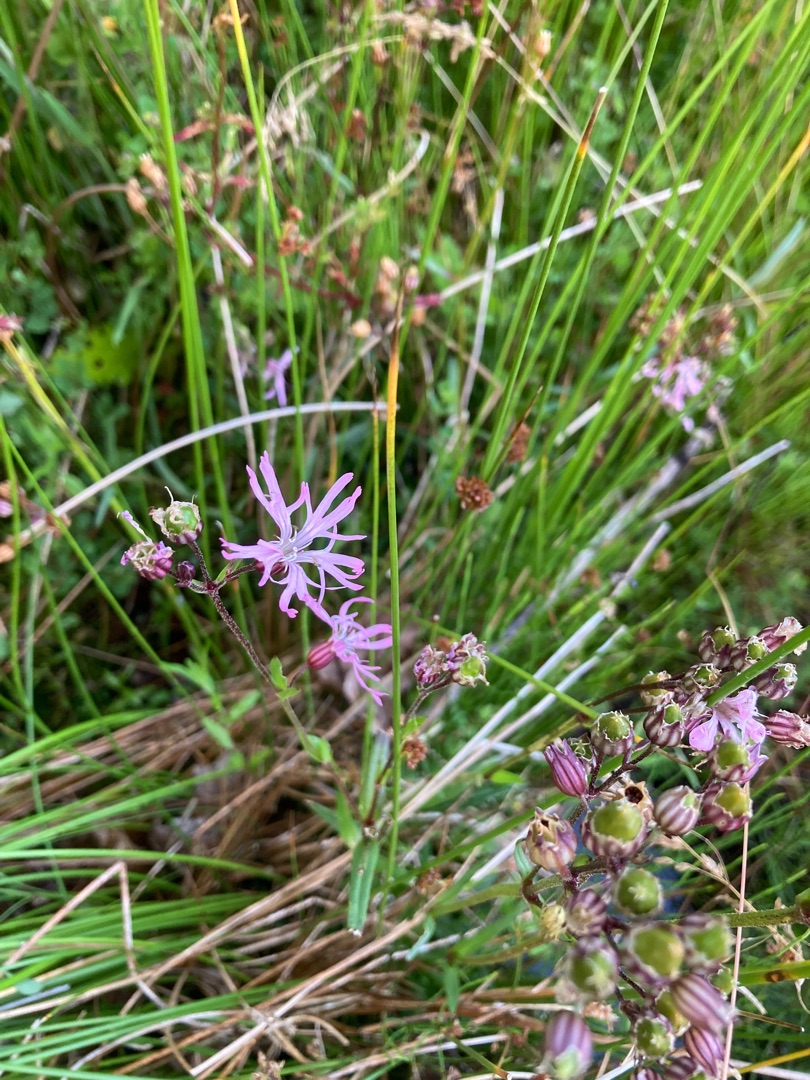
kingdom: Plantae
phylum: Tracheophyta
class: Magnoliopsida
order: Caryophyllales
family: Caryophyllaceae
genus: Silene
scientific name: Silene flos-cuculi
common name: Trævlekrone
